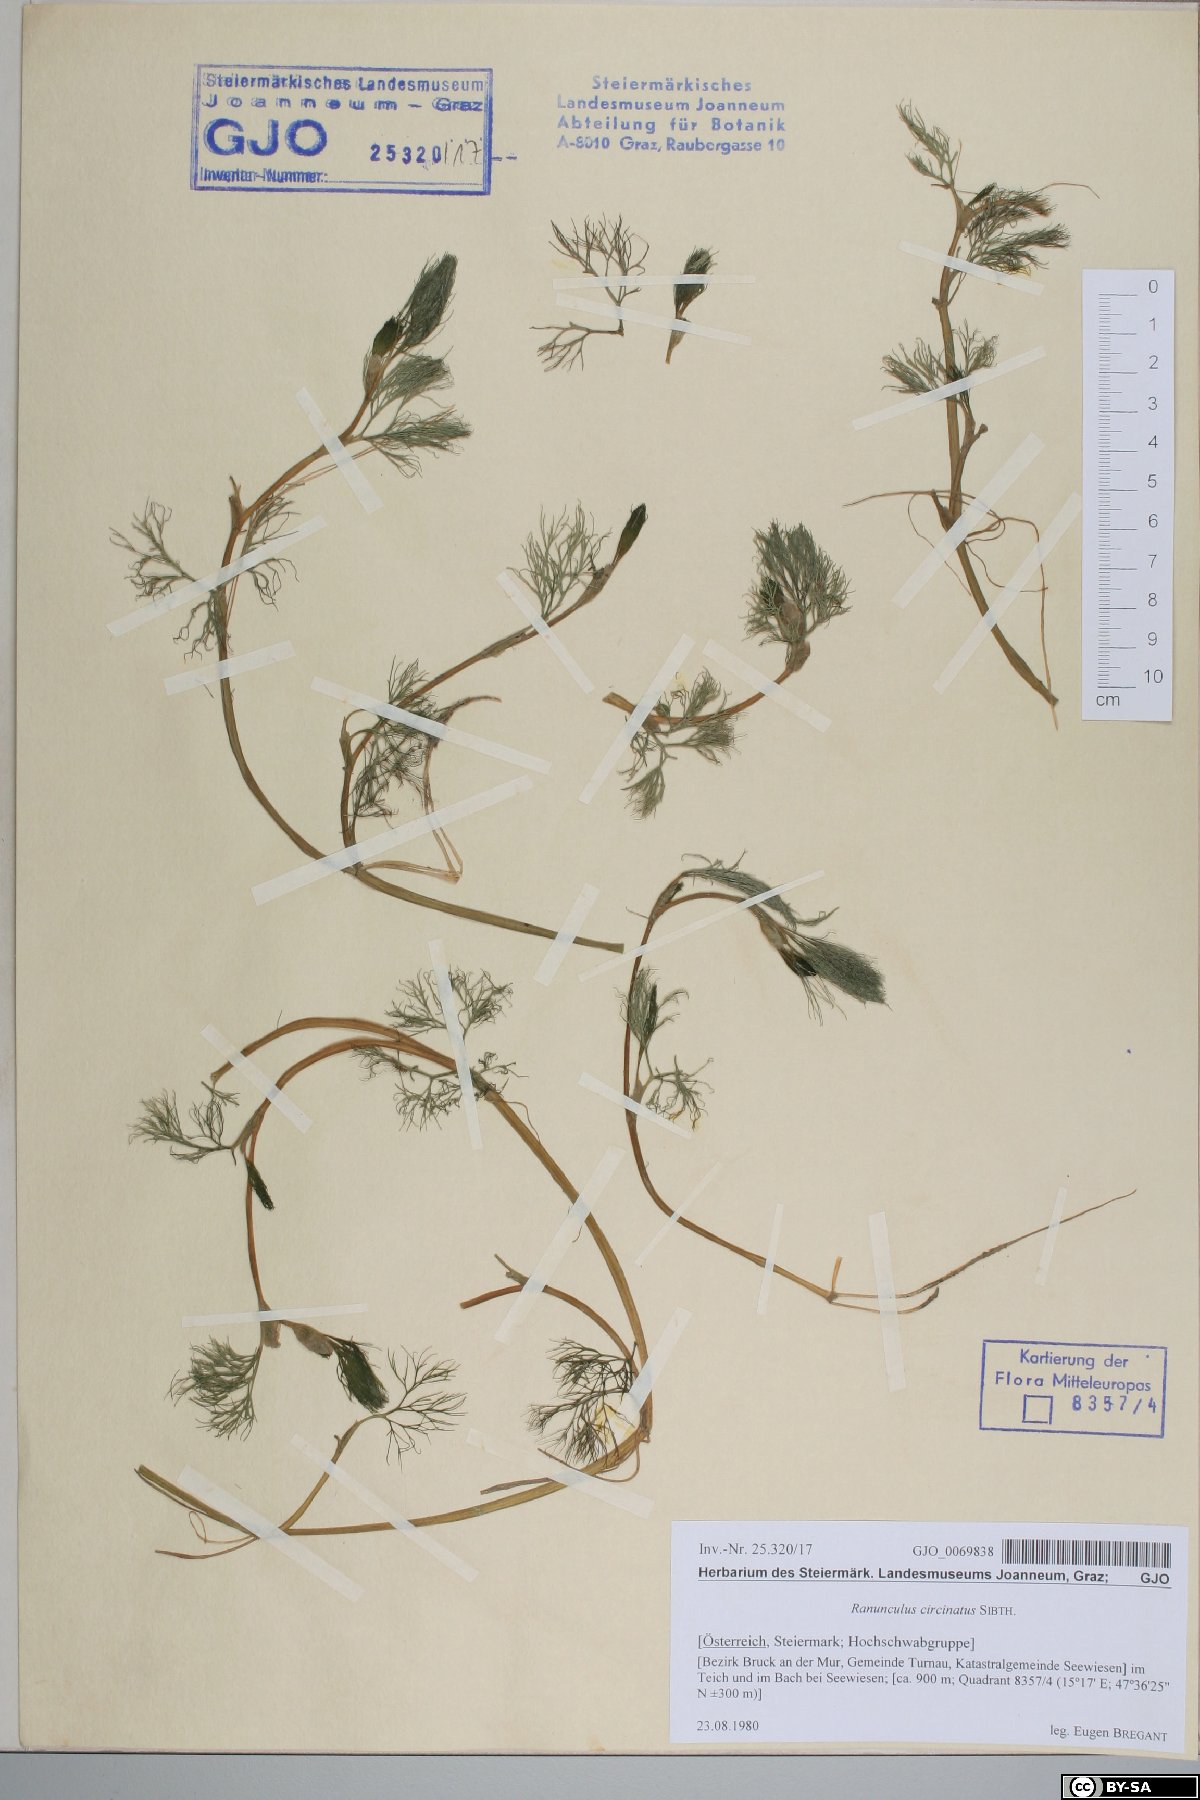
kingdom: Plantae
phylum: Tracheophyta
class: Magnoliopsida
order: Ranunculales
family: Ranunculaceae
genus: Ranunculus
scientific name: Ranunculus circinatus
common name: Fan-leaved water-crowfoot
